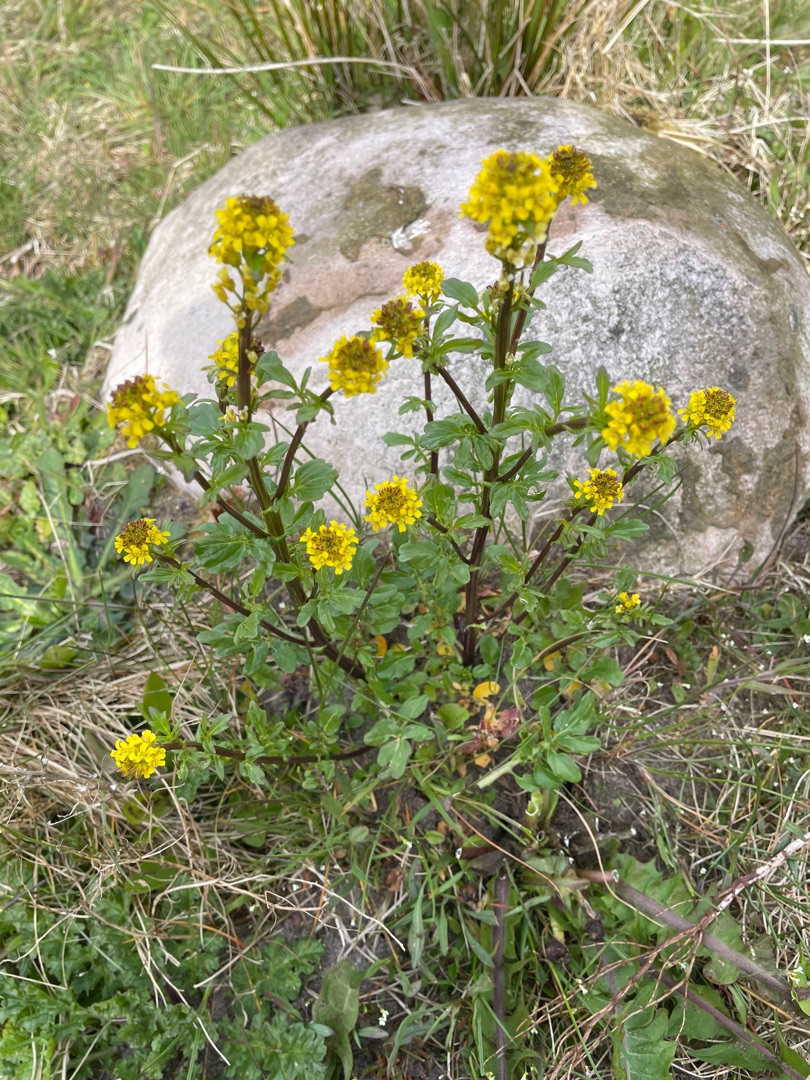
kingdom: Plantae
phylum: Tracheophyta
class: Magnoliopsida
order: Brassicales
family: Brassicaceae
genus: Barbarea
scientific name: Barbarea intermedia
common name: Randhåret vinterkarse
